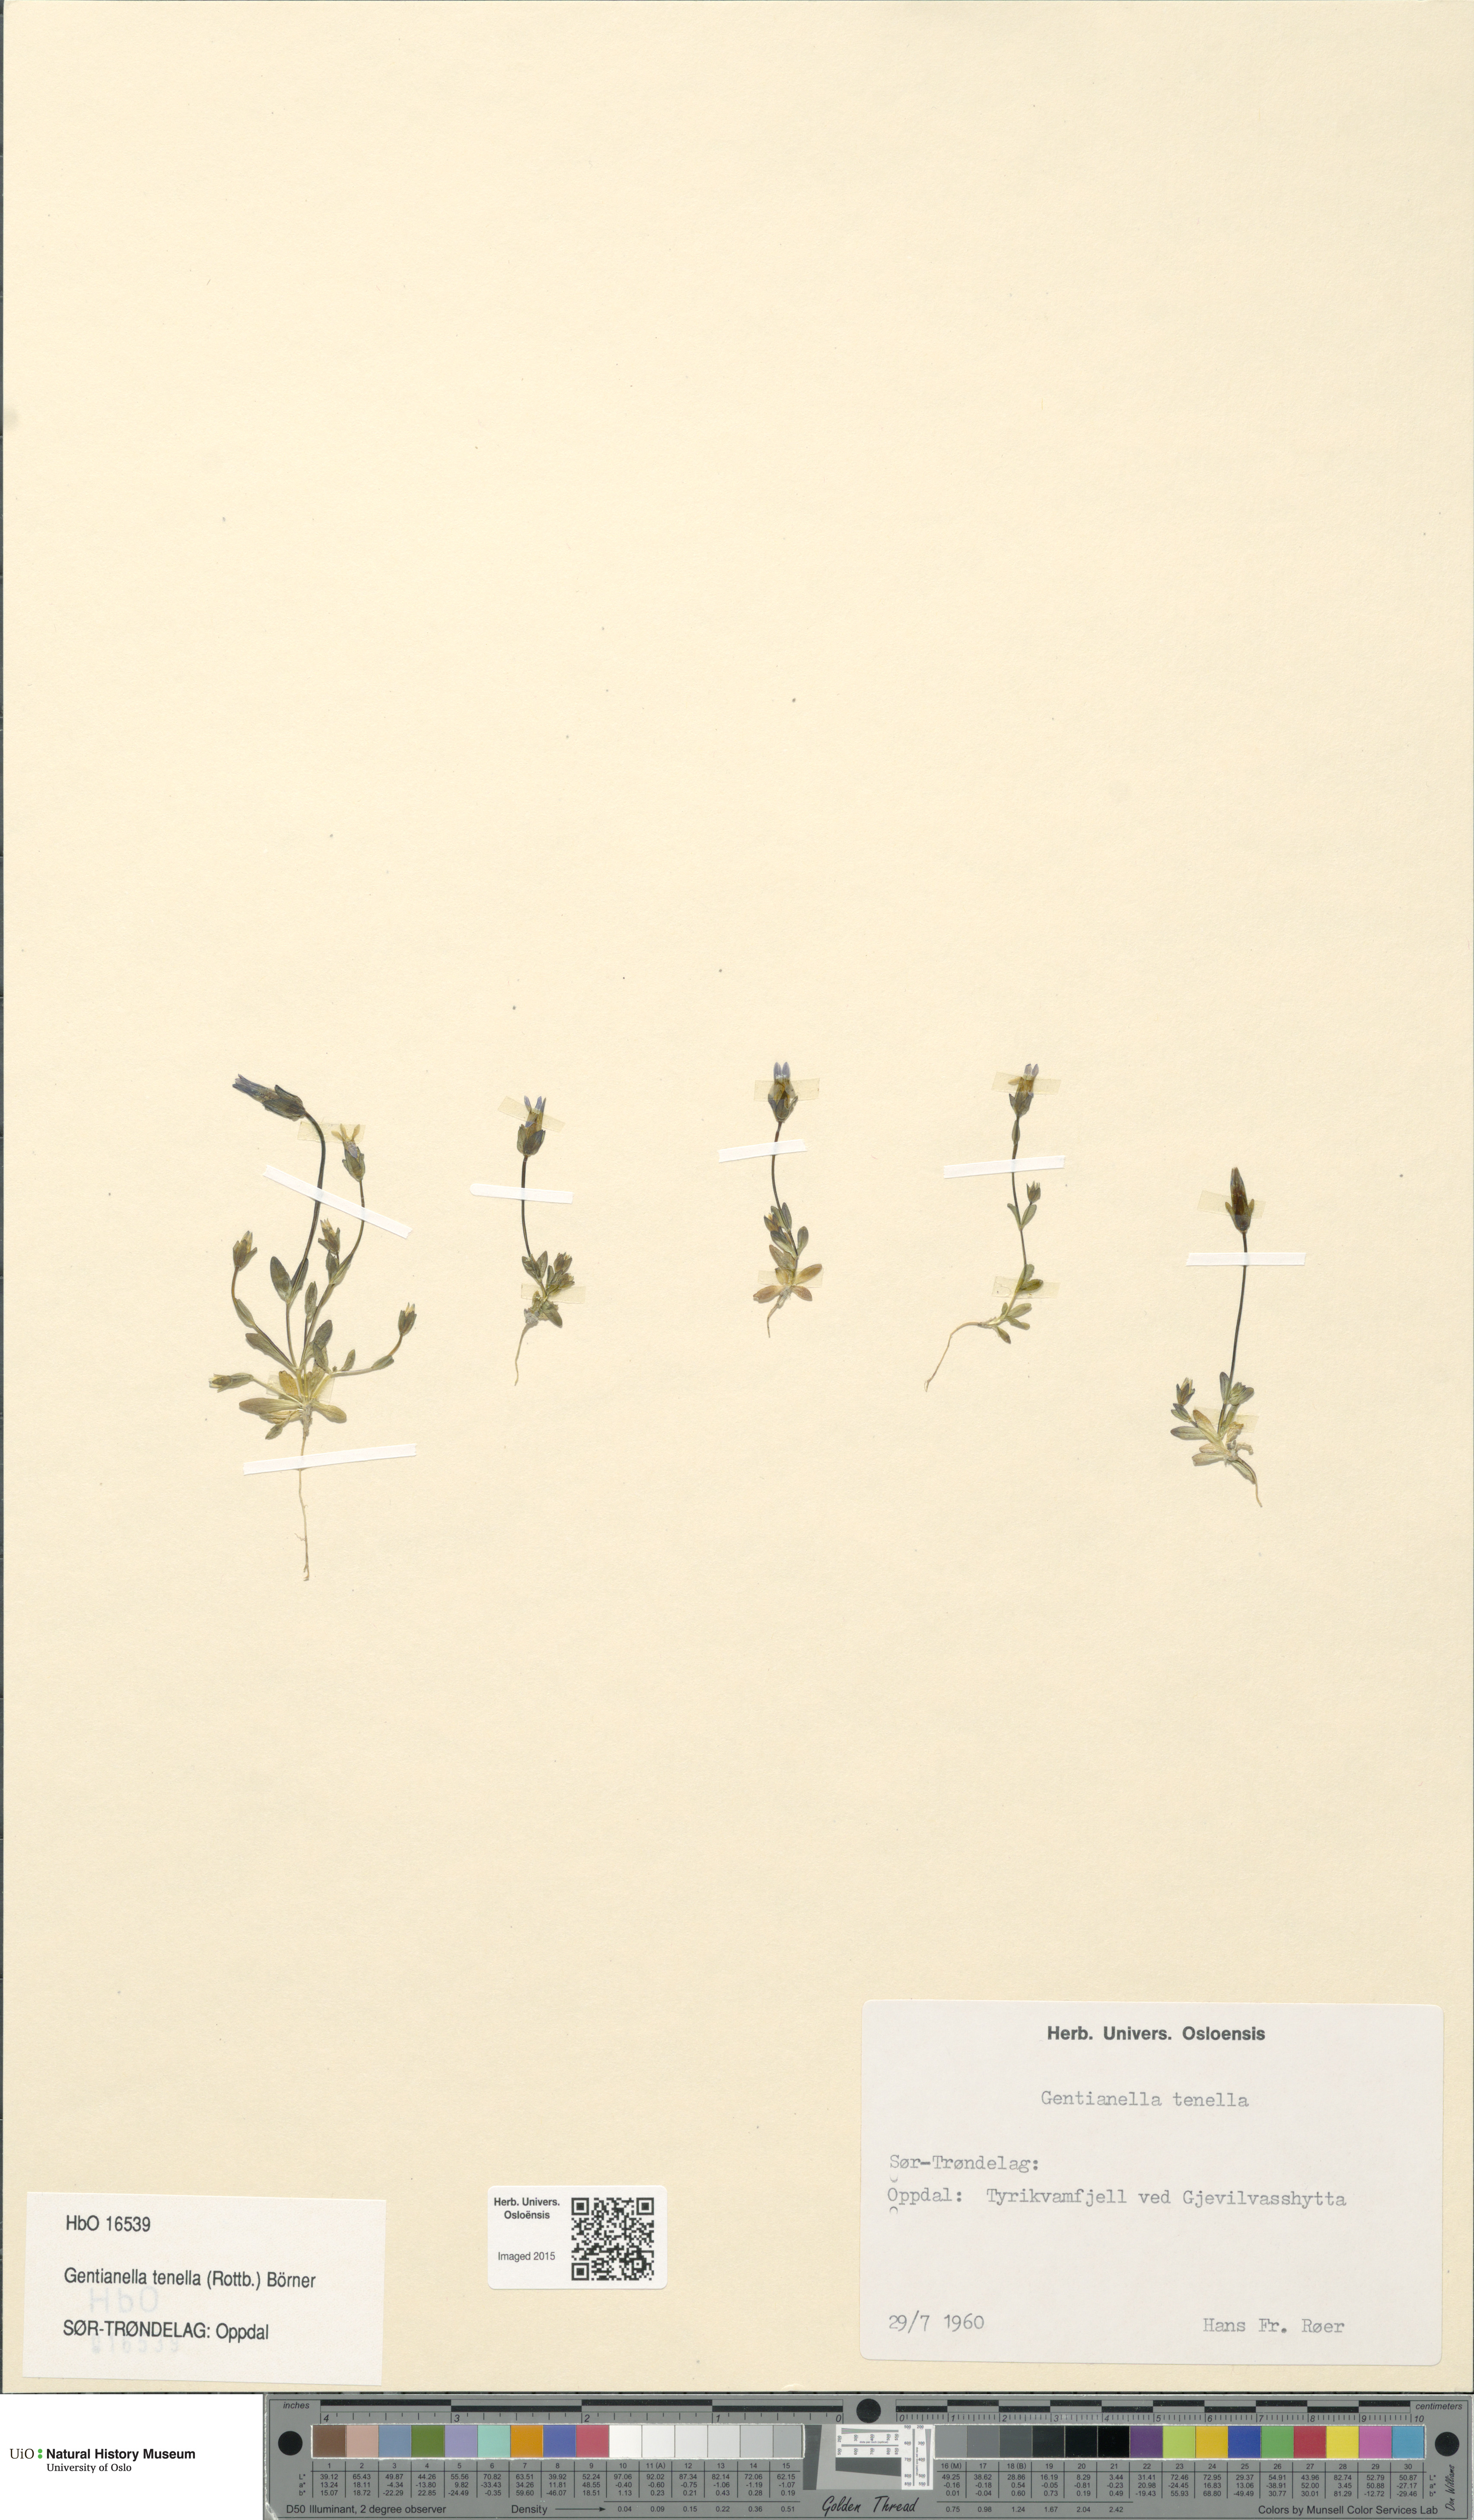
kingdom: Plantae
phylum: Tracheophyta
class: Magnoliopsida
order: Gentianales
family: Gentianaceae
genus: Comastoma
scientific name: Comastoma tenellum
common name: Dane's dwarf gentian
